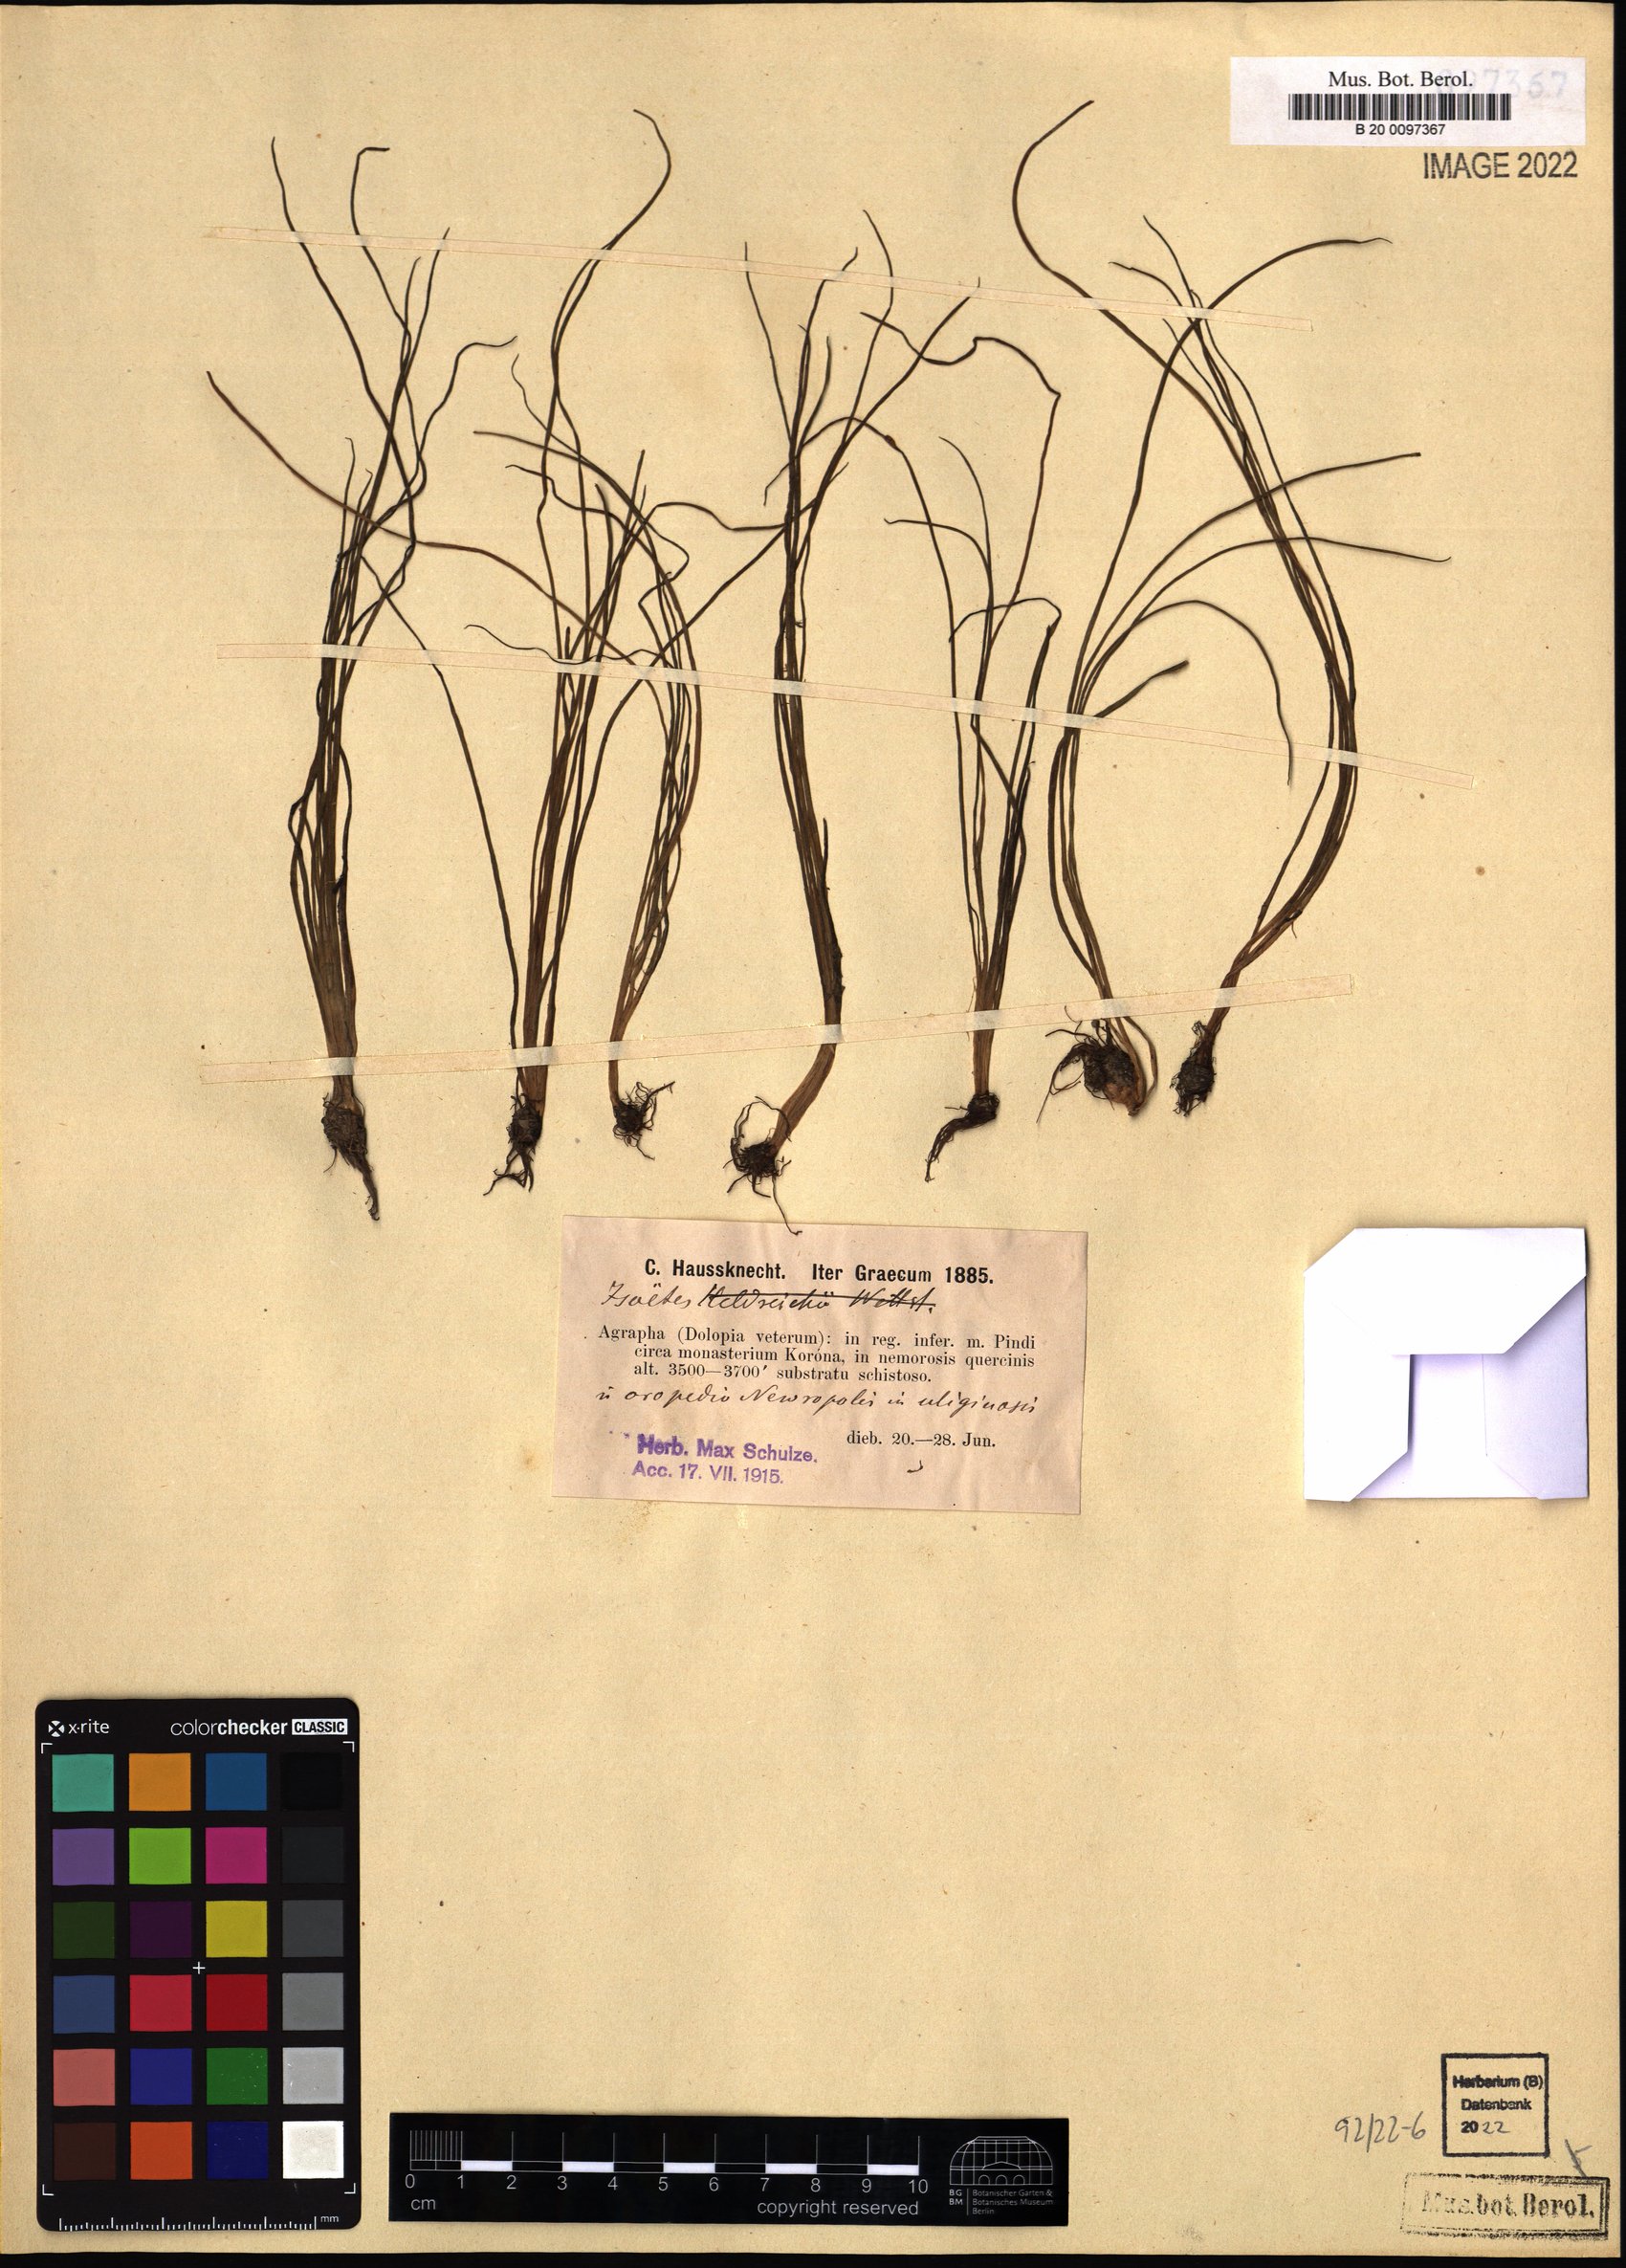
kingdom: Plantae
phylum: Tracheophyta
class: Lycopodiopsida
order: Isoetales
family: Isoetaceae
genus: Isoetes
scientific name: Isoetes
